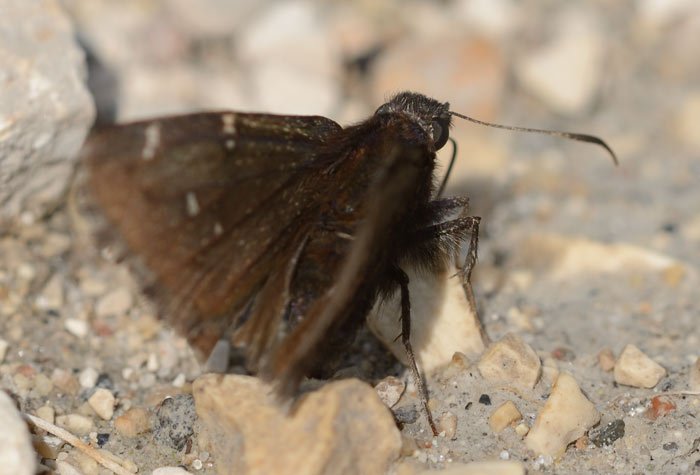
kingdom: Animalia
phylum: Arthropoda
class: Insecta
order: Lepidoptera
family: Hesperiidae
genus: Autochton
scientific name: Autochton
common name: Northern Cloudywing
